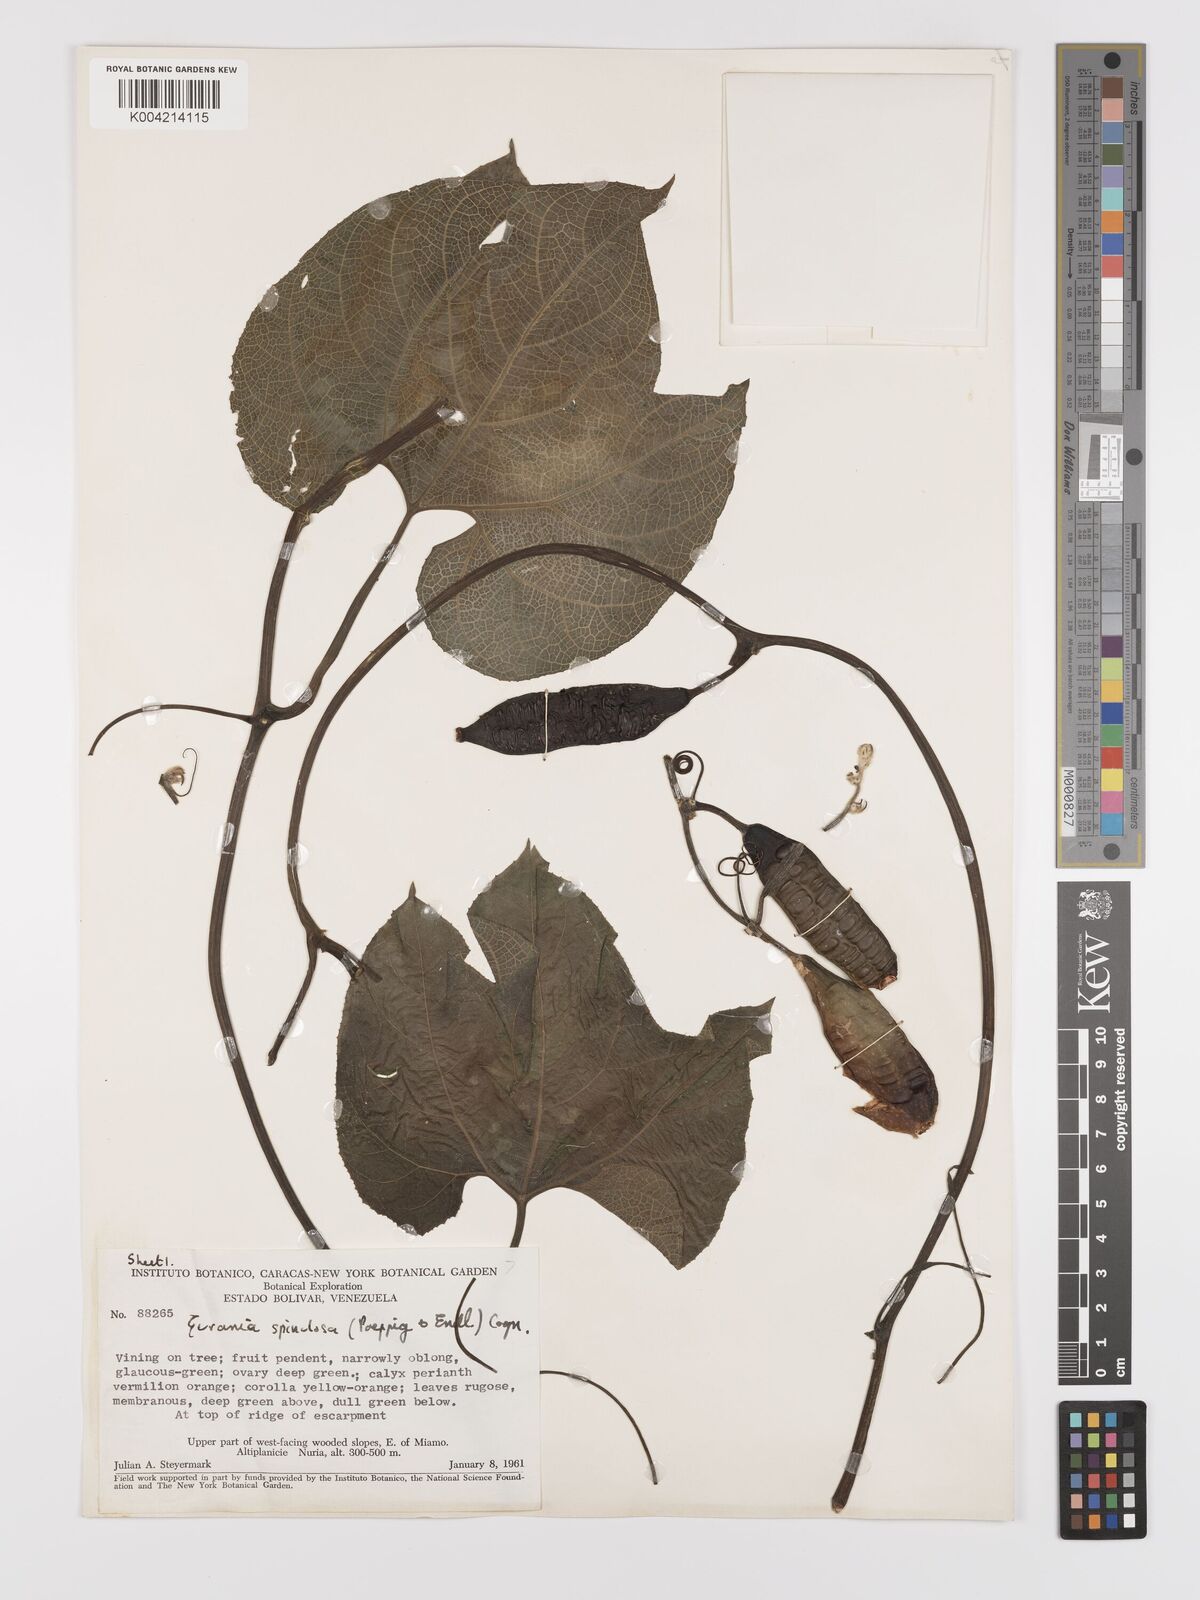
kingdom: Plantae
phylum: Tracheophyta
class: Magnoliopsida
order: Cucurbitales
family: Cucurbitaceae
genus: Gurania
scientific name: Gurania lobata
